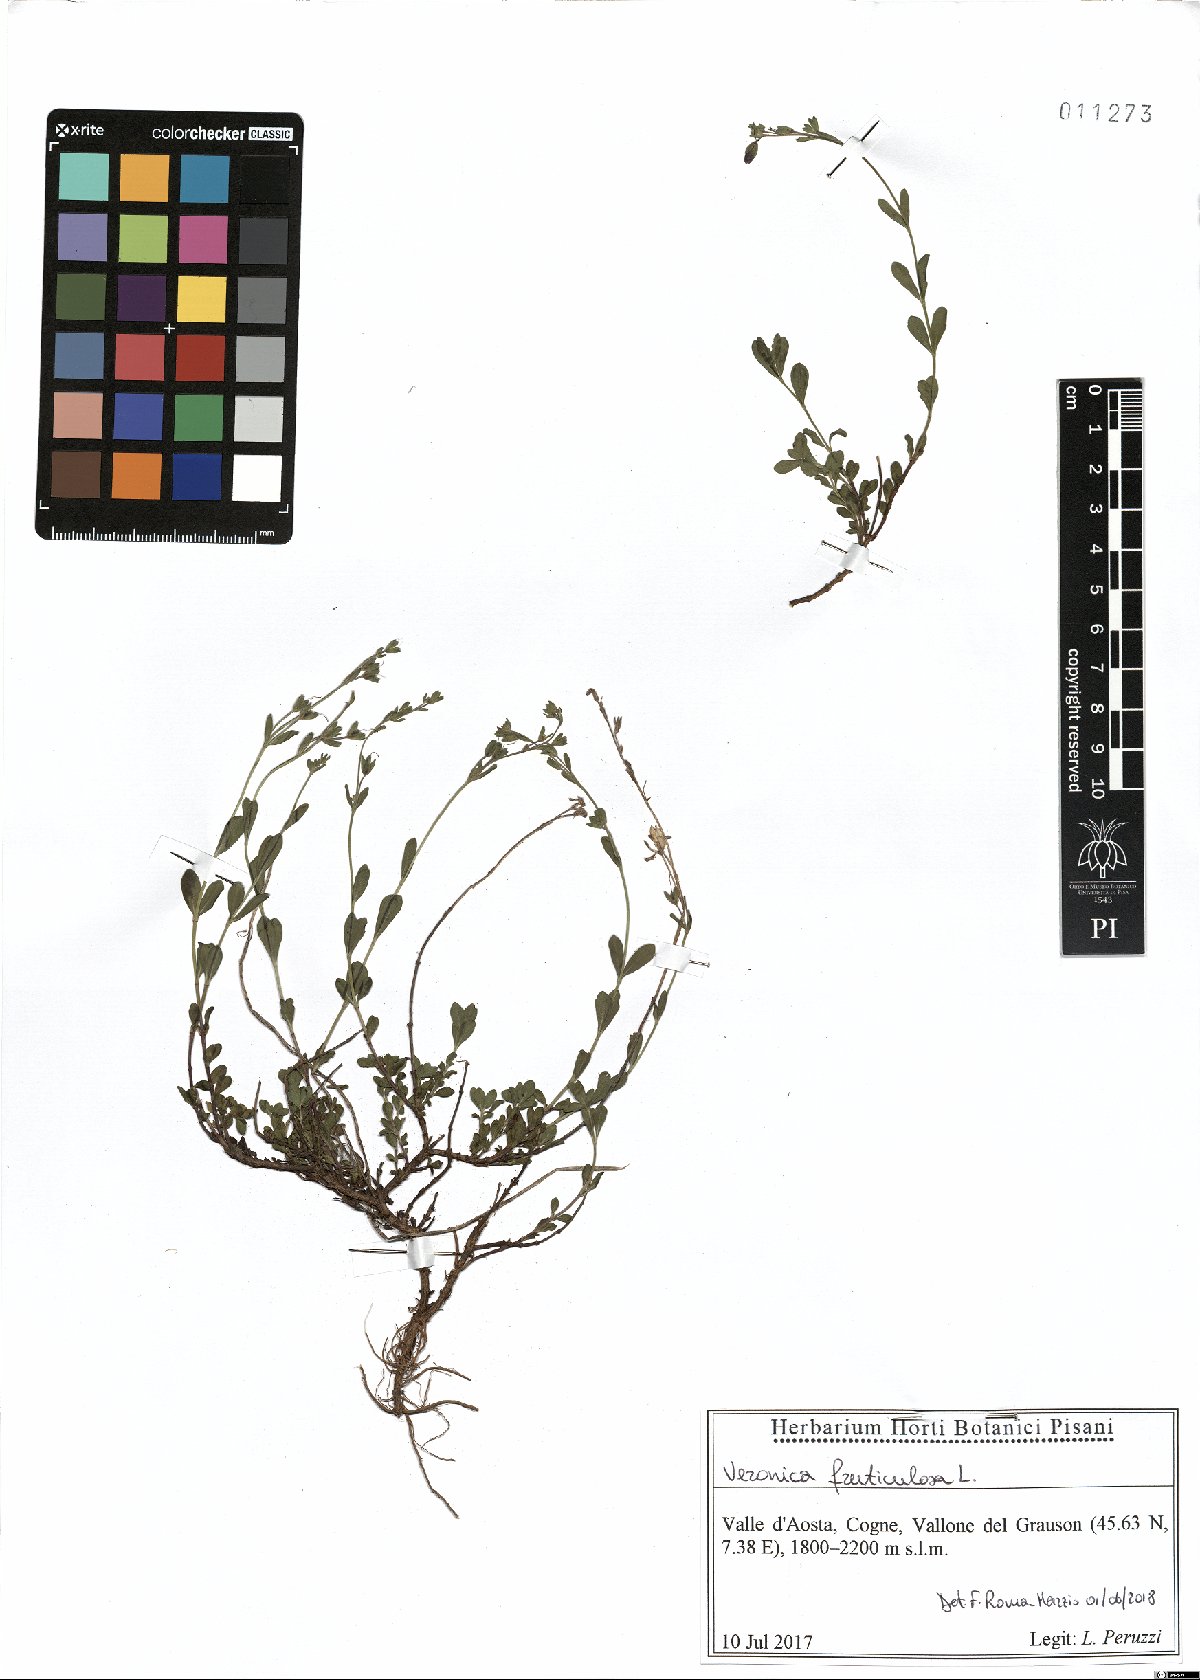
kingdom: Plantae
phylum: Tracheophyta
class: Magnoliopsida
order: Lamiales
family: Plantaginaceae
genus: Veronica
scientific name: Veronica fruticulosa
